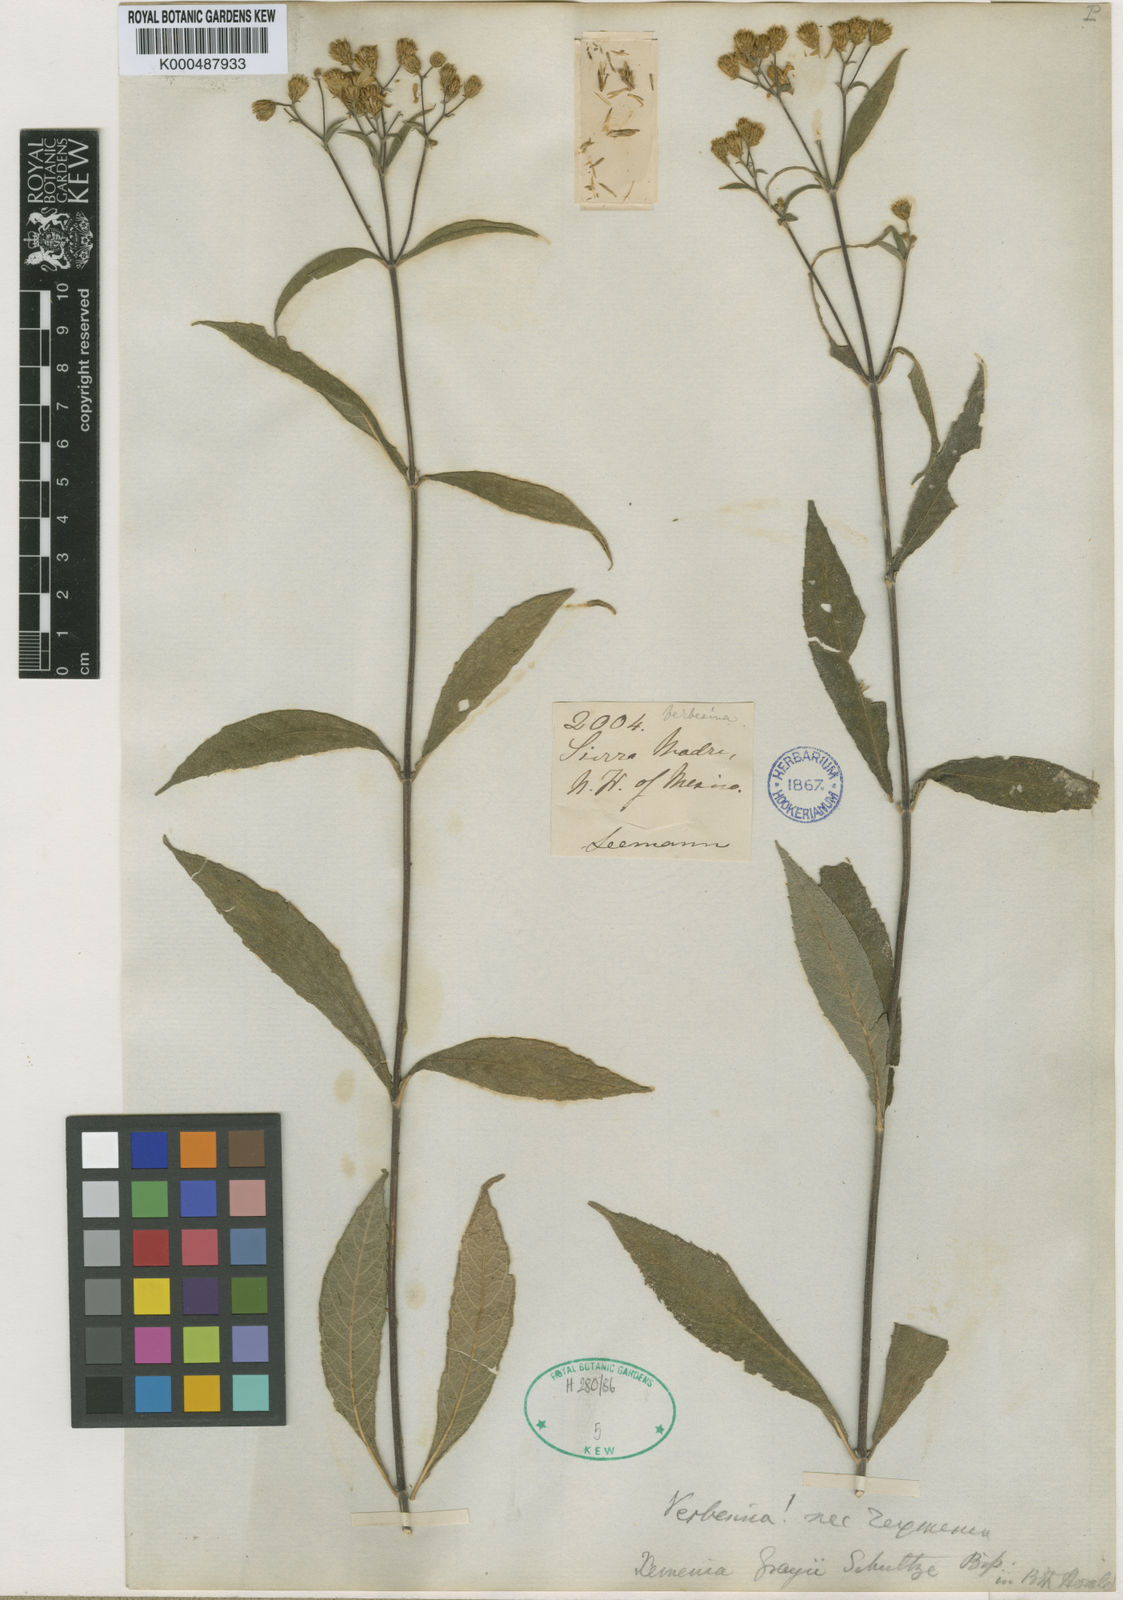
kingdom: Plantae
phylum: Tracheophyta
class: Magnoliopsida
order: Asterales
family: Asteraceae
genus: Verbesina
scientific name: Verbesina grayi
